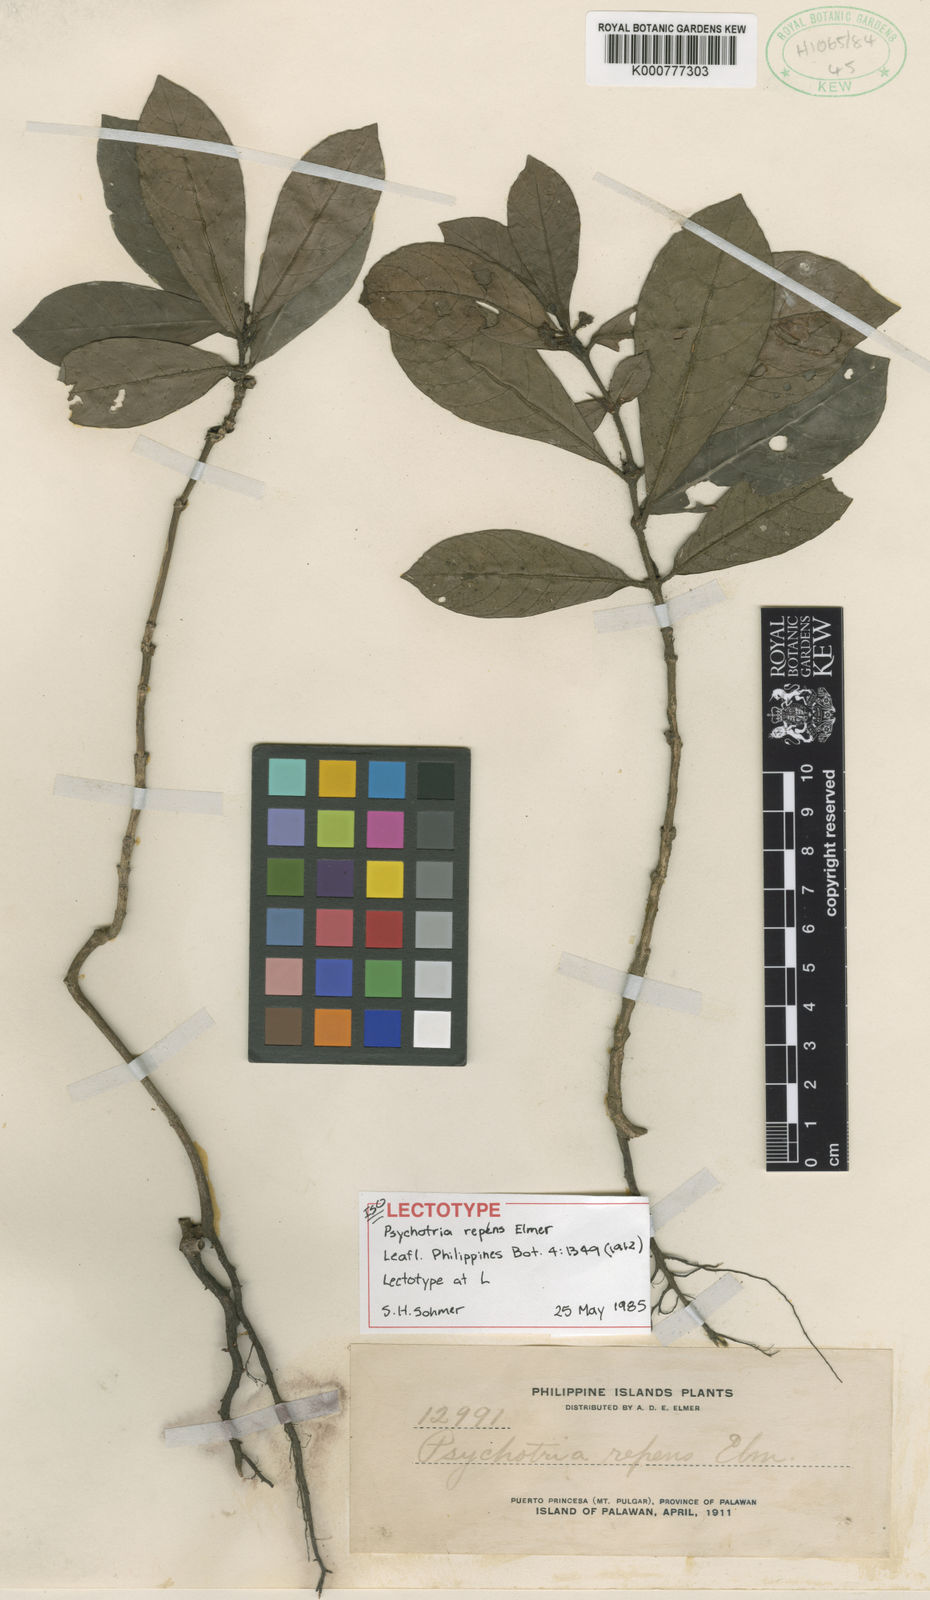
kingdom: Plantae
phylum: Tracheophyta
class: Magnoliopsida
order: Gentianales
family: Rubiaceae
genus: Psychotria
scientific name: Psychotria pulgarensis
